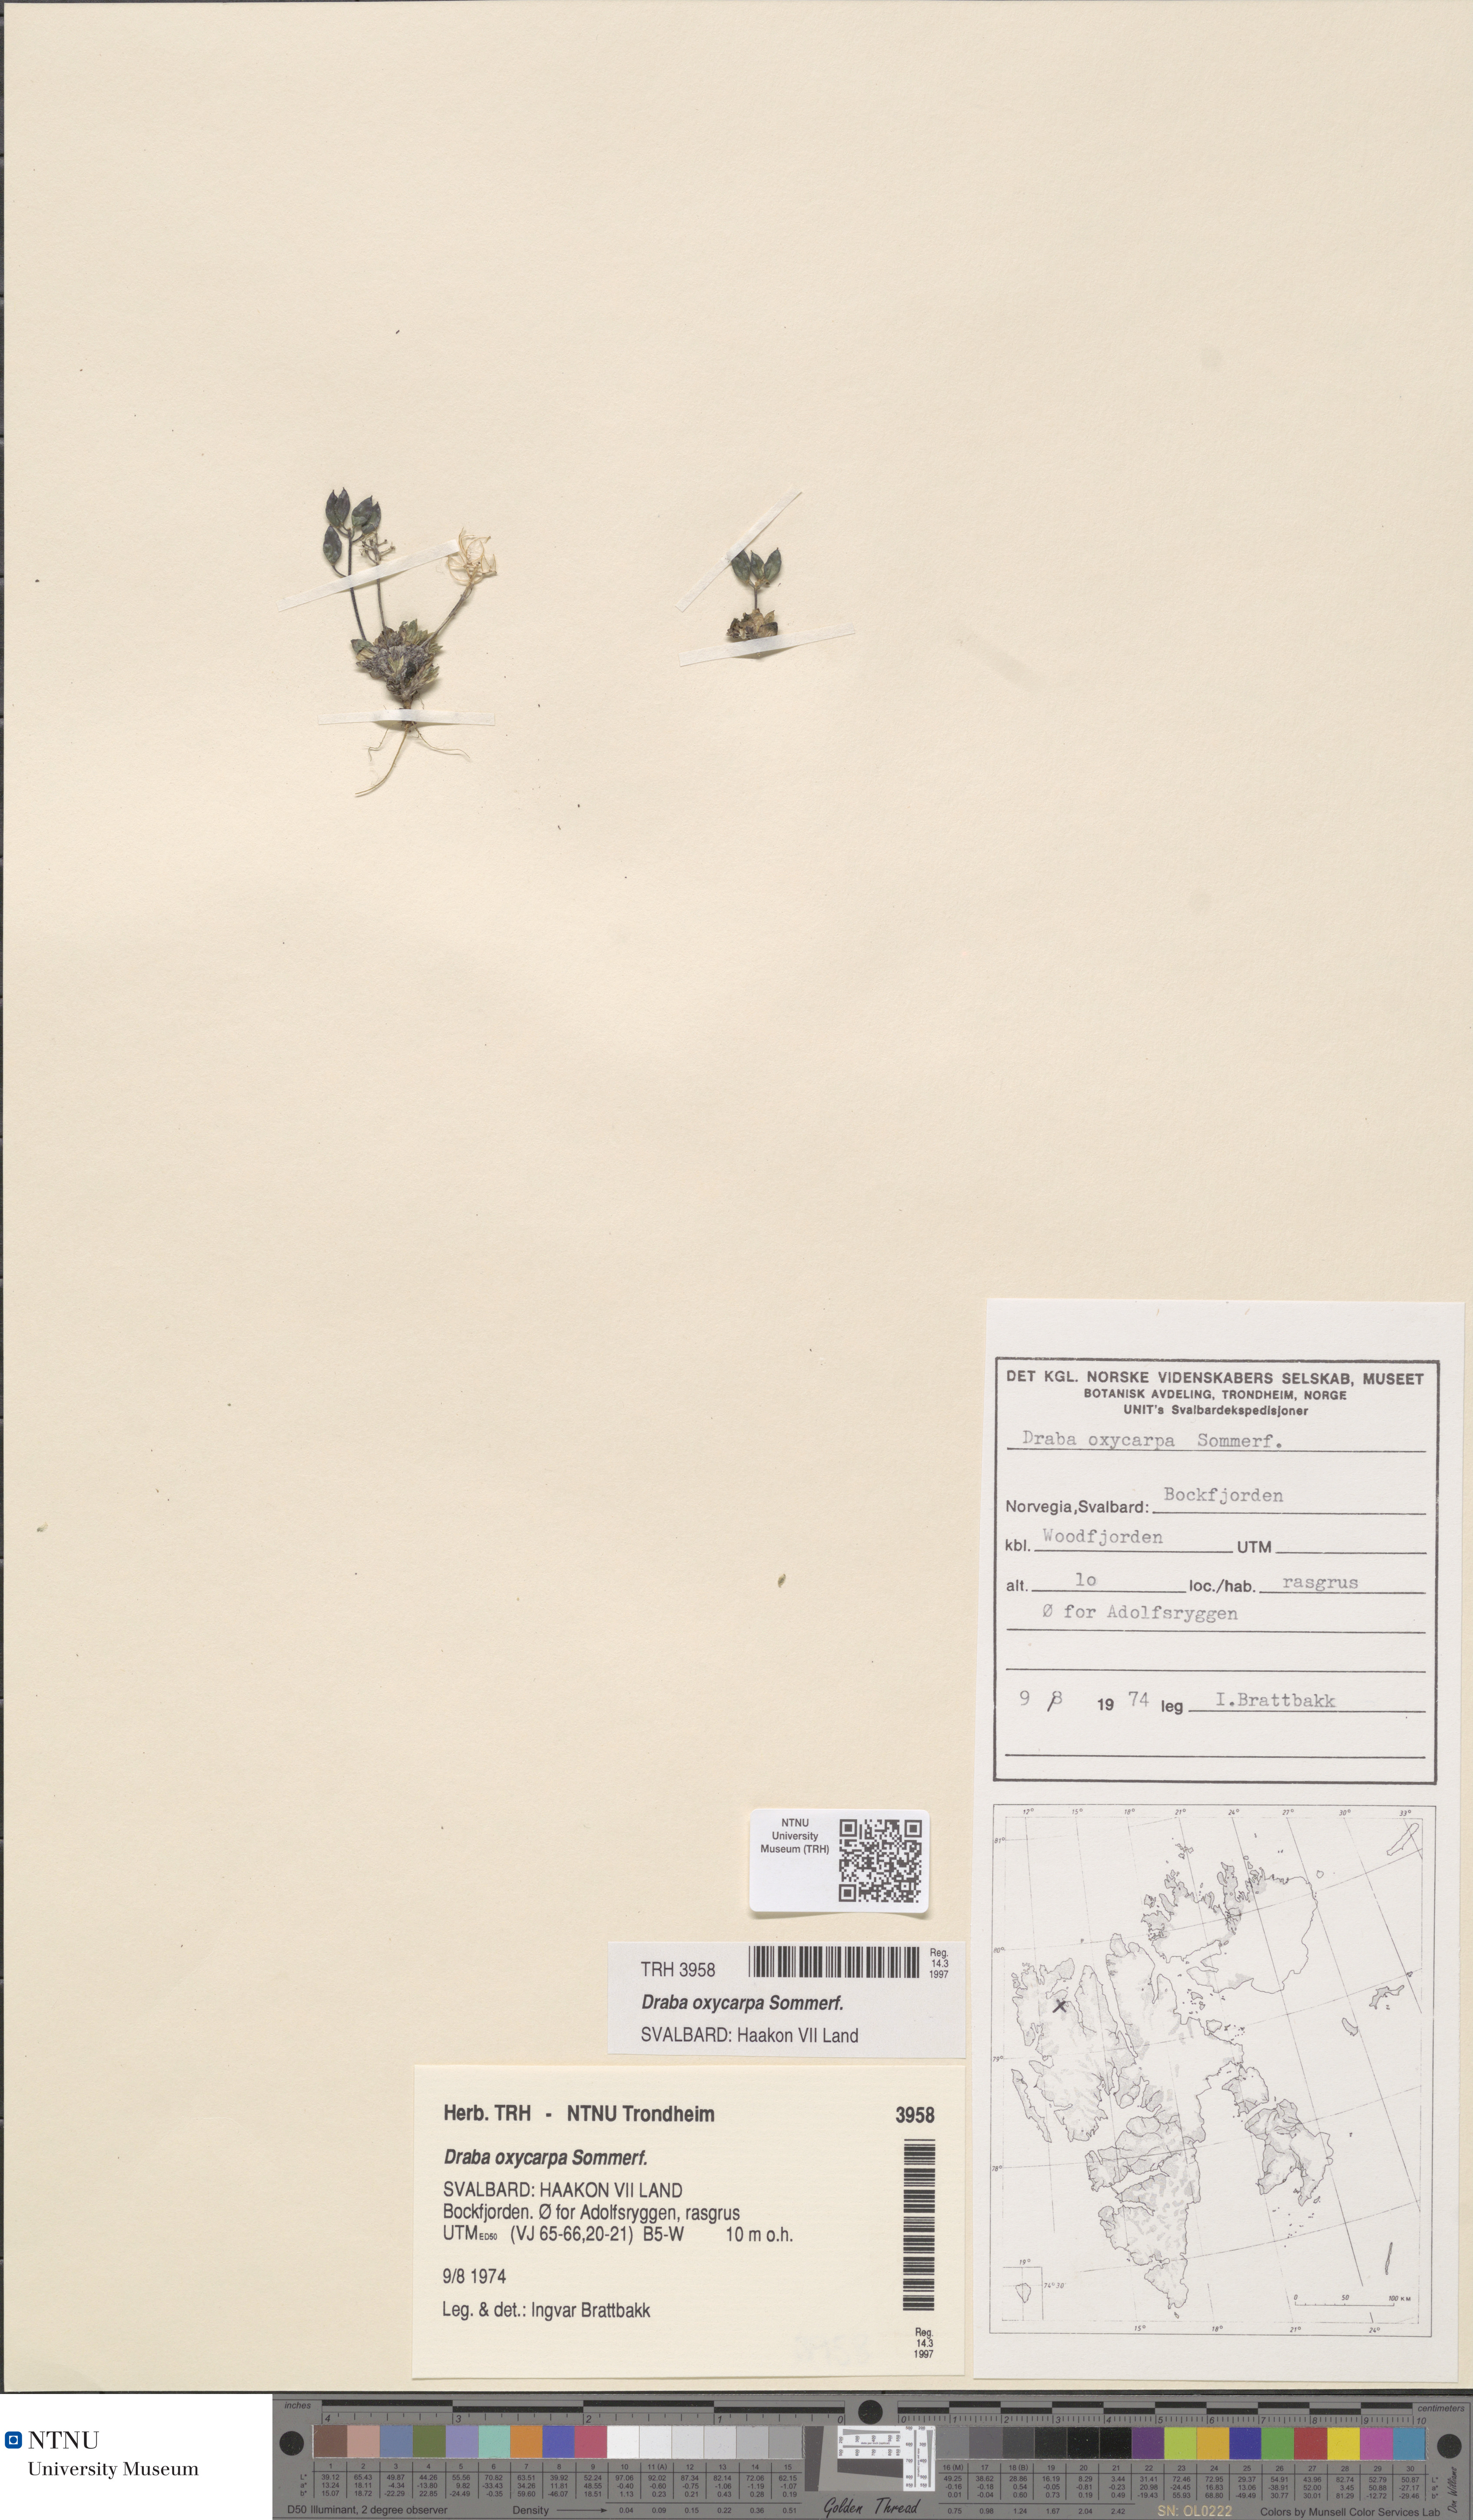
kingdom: Plantae
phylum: Tracheophyta
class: Magnoliopsida
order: Brassicales
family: Brassicaceae
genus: Draba
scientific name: Draba oxycarpa
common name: Sharp-fruited whitlow-grass
